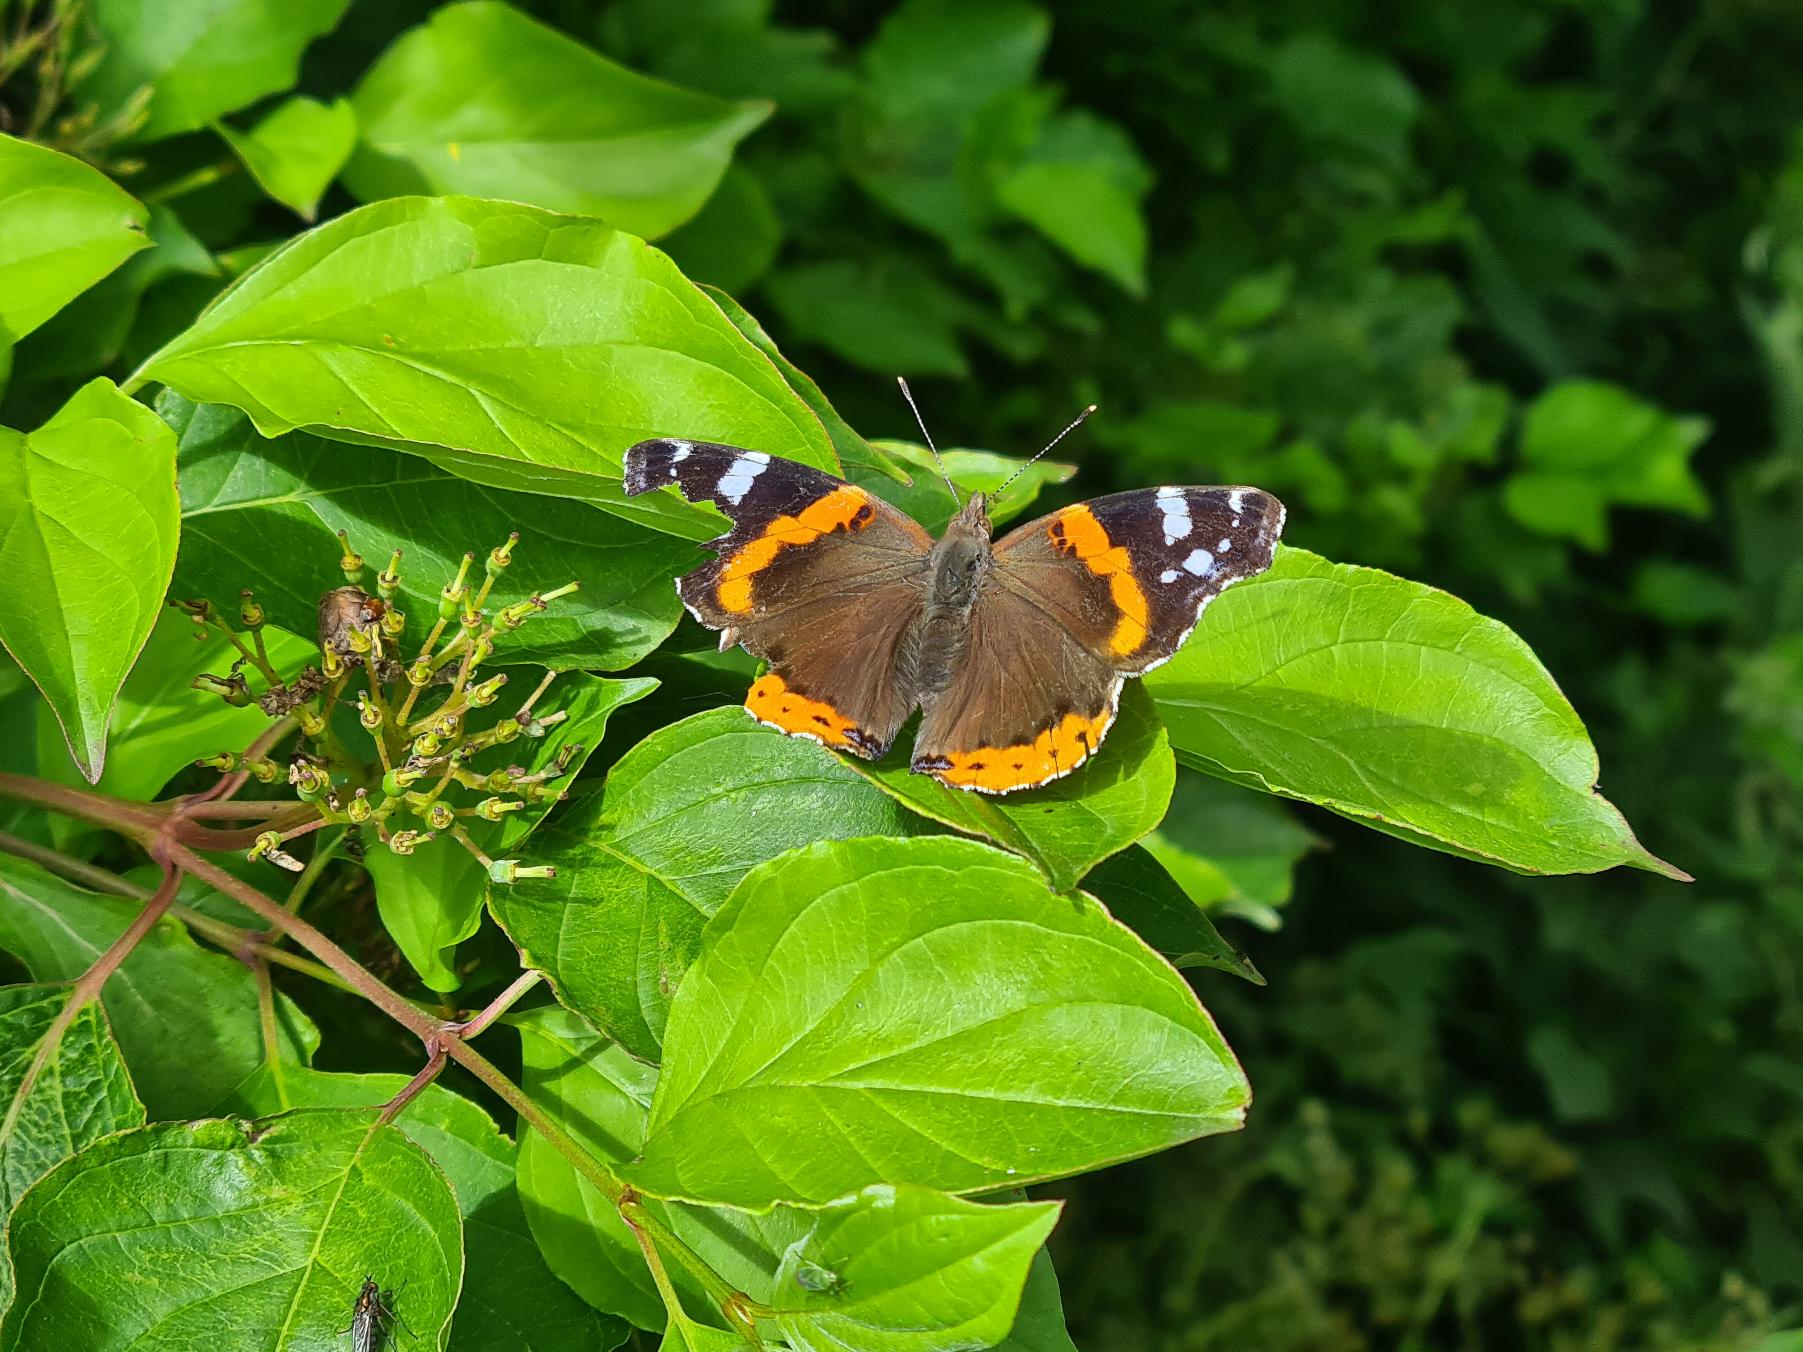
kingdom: Animalia
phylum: Arthropoda
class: Insecta
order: Lepidoptera
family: Nymphalidae
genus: Vanessa
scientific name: Vanessa atalanta
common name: Admiral
